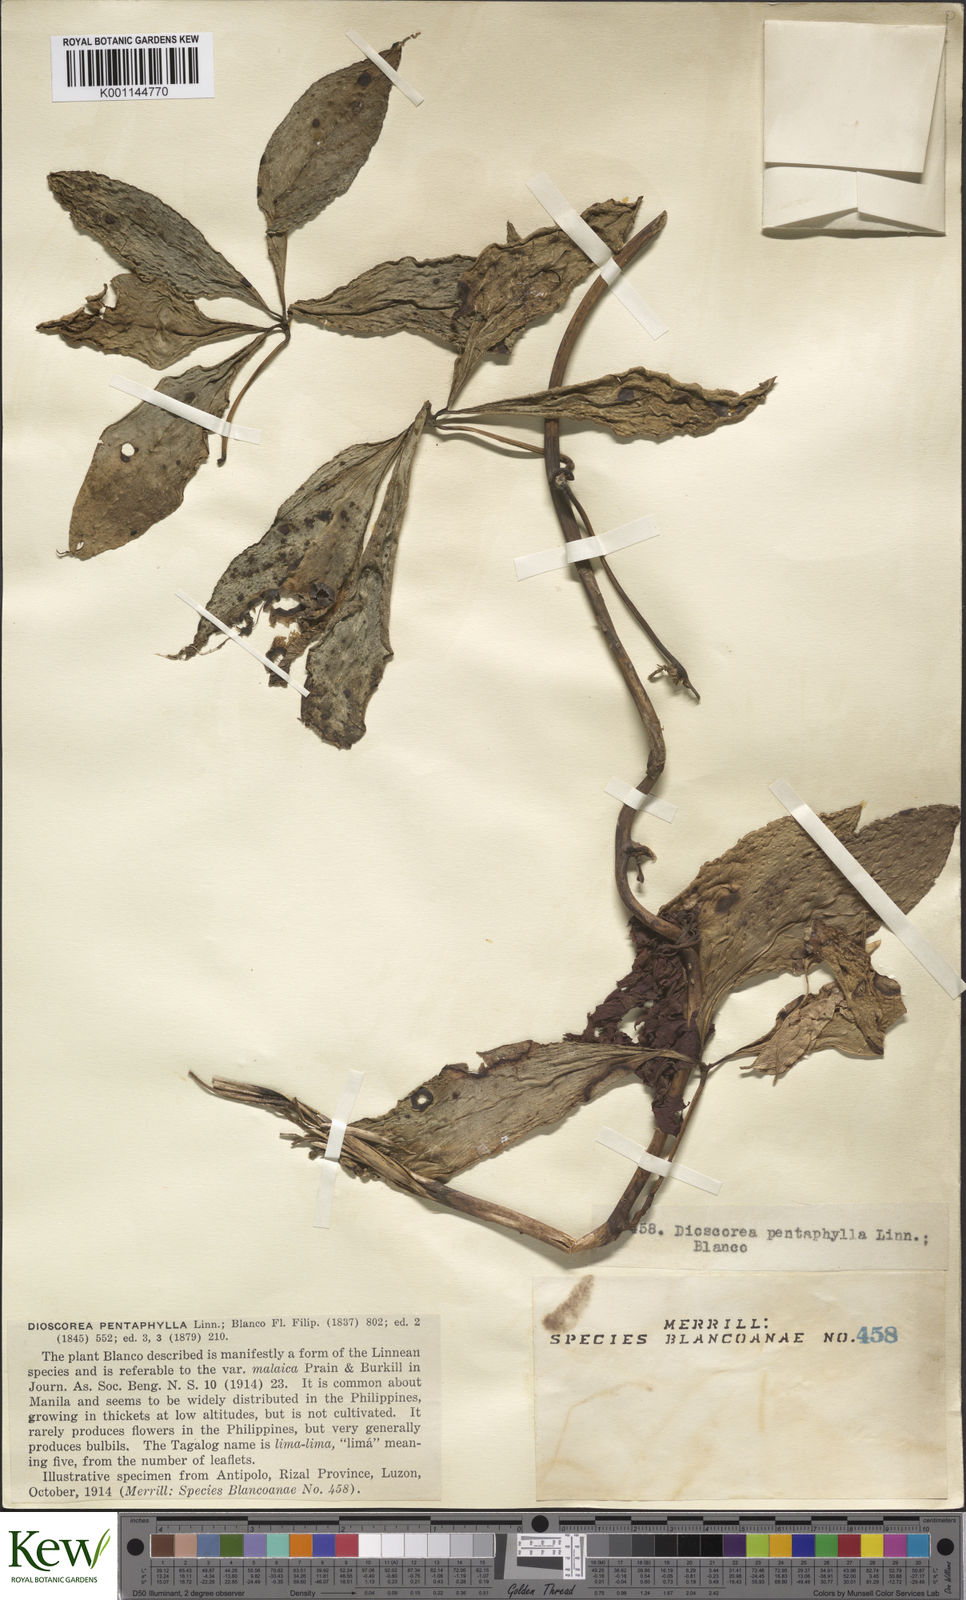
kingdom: Plantae
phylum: Tracheophyta
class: Liliopsida
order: Dioscoreales
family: Dioscoreaceae
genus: Dioscorea
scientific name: Dioscorea pentaphylla
